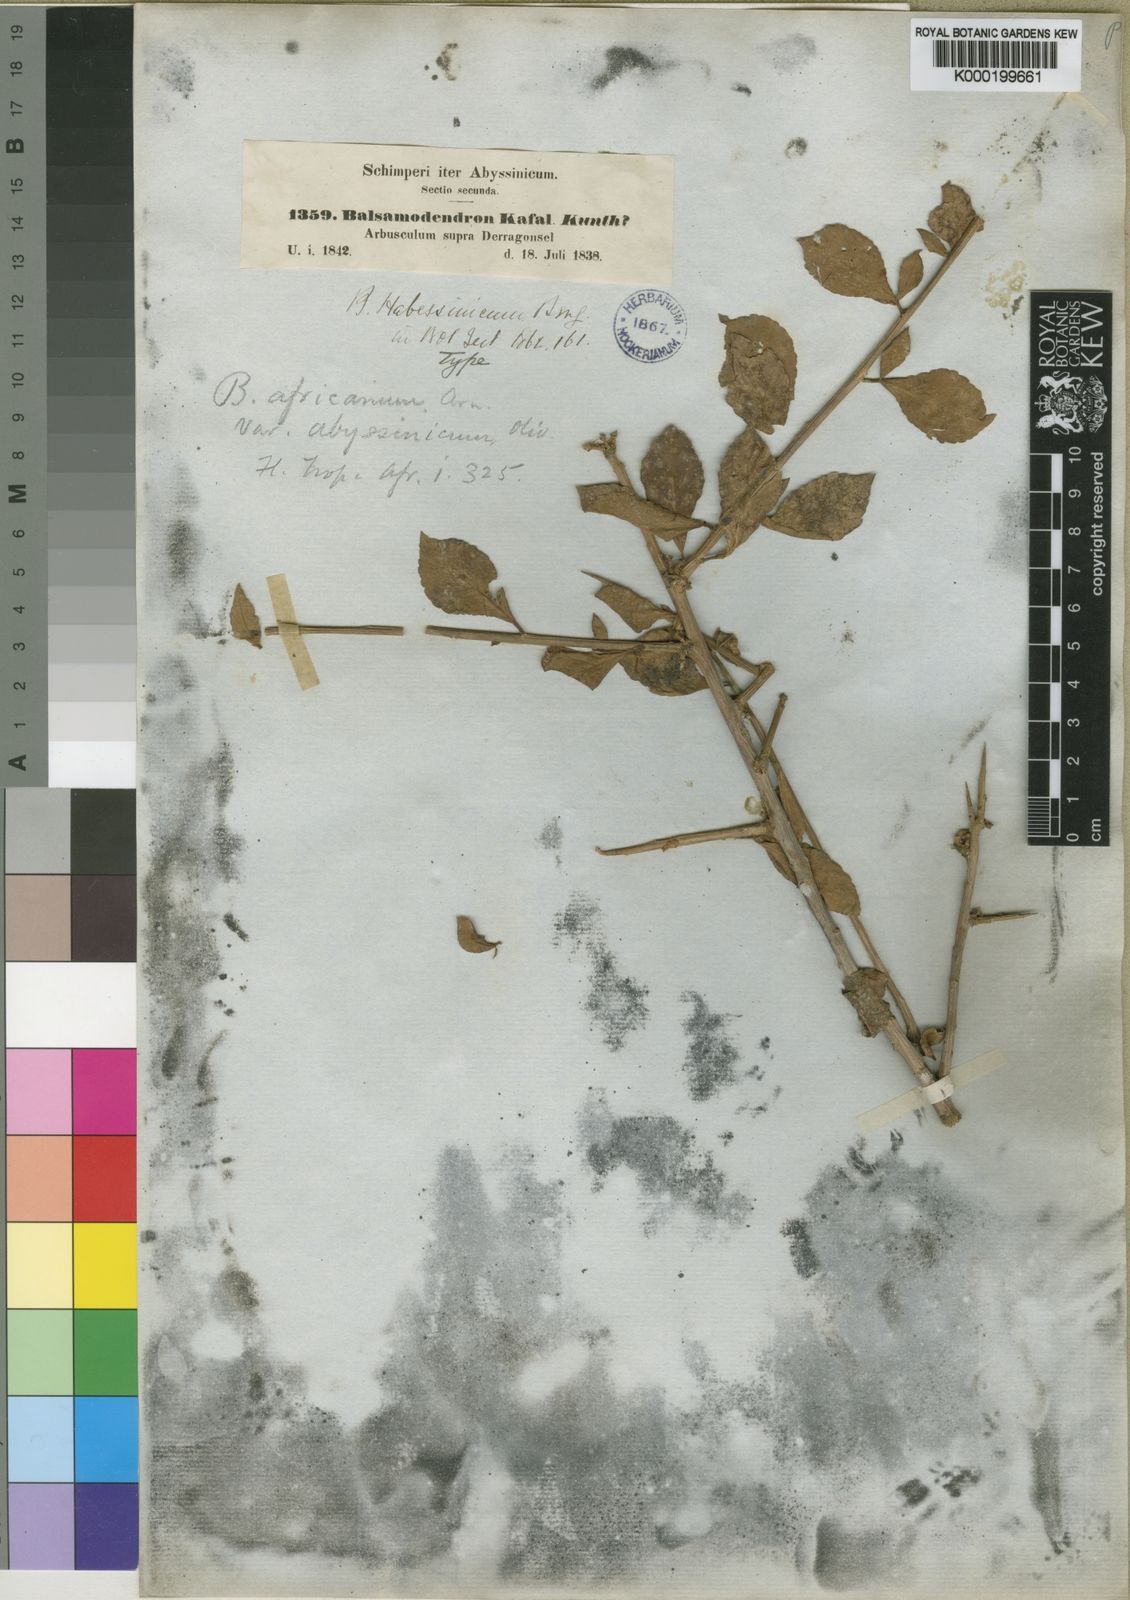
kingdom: Plantae
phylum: Tracheophyta
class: Magnoliopsida
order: Sapindales
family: Burseraceae
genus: Commiphora
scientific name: Commiphora kua
